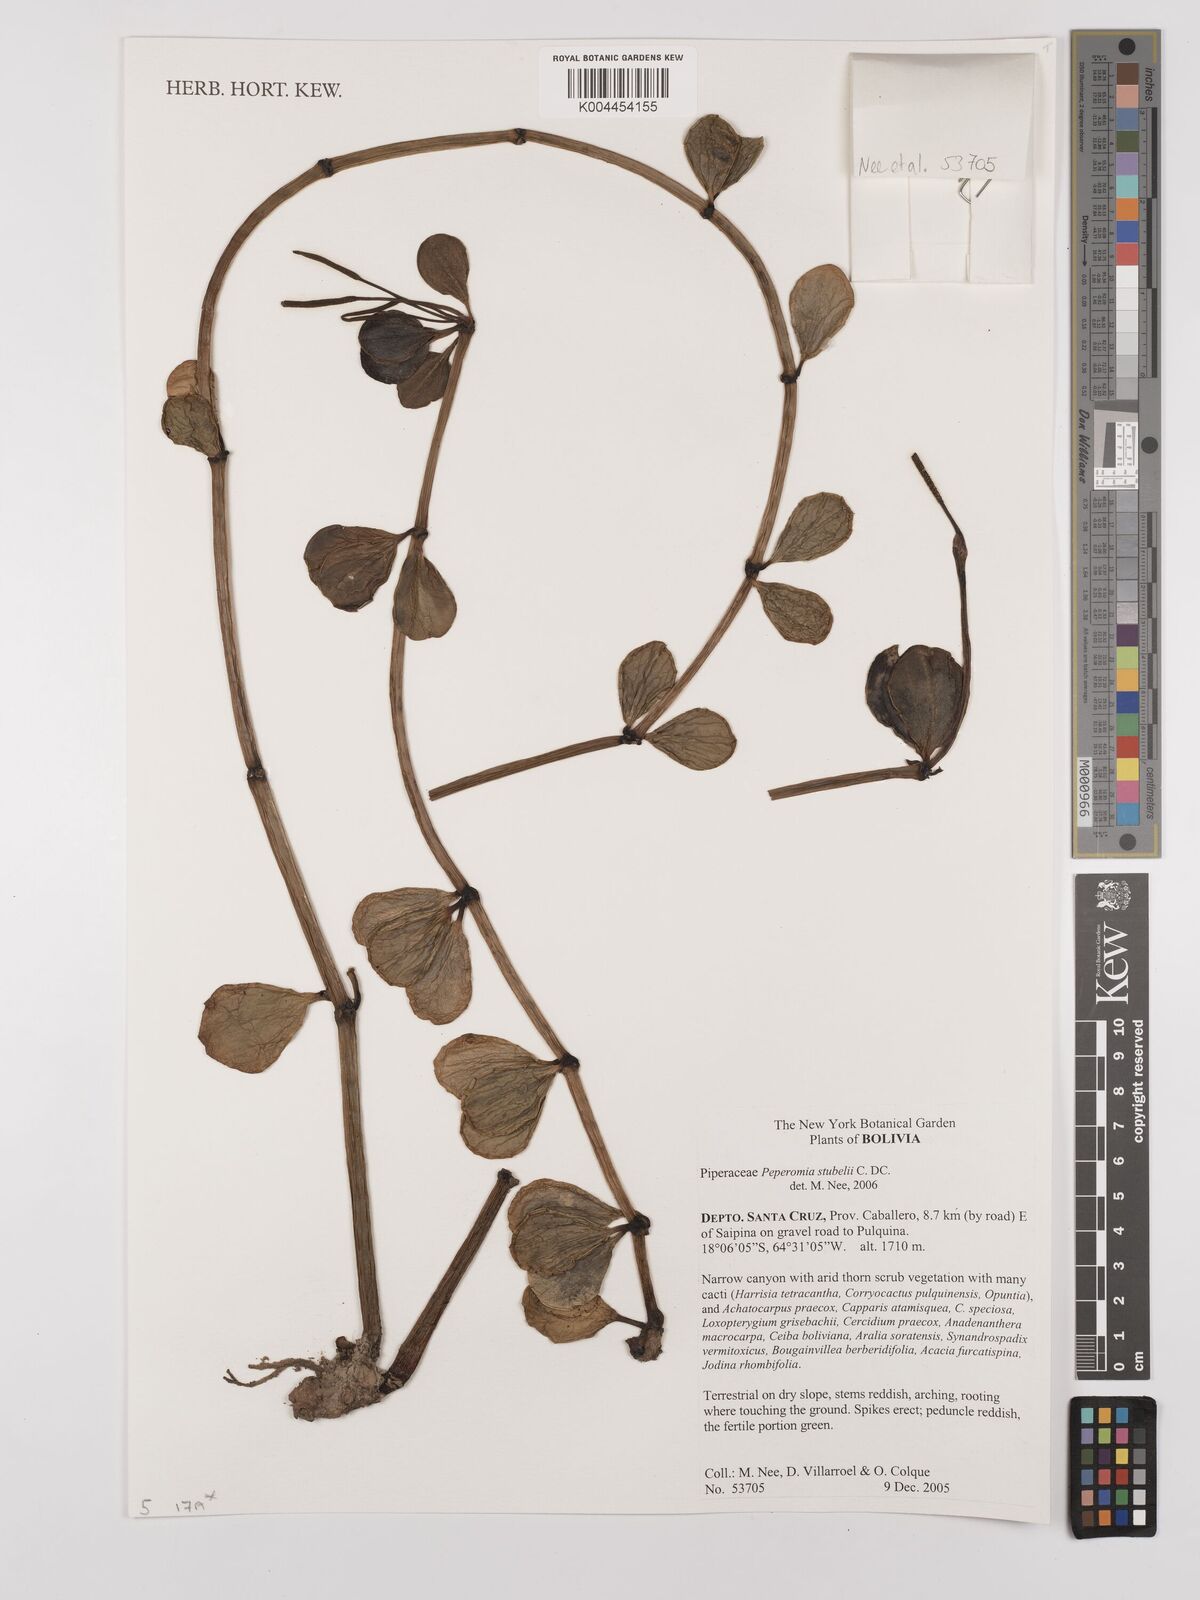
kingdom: Plantae
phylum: Tracheophyta
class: Magnoliopsida
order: Piperales
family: Piperaceae
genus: Peperomia
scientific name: Peperomia stuebelii
